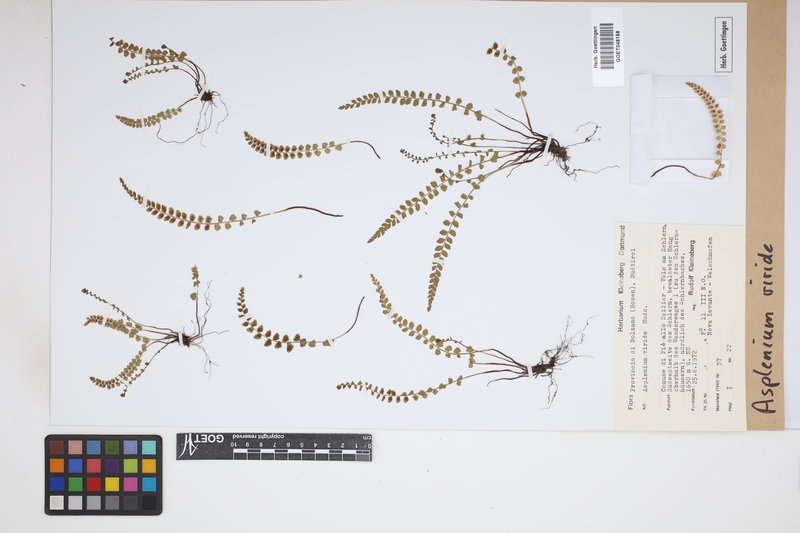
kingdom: Plantae
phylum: Tracheophyta
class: Polypodiopsida
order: Polypodiales
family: Aspleniaceae
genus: Asplenium
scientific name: Asplenium viride
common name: Green spleenwort
